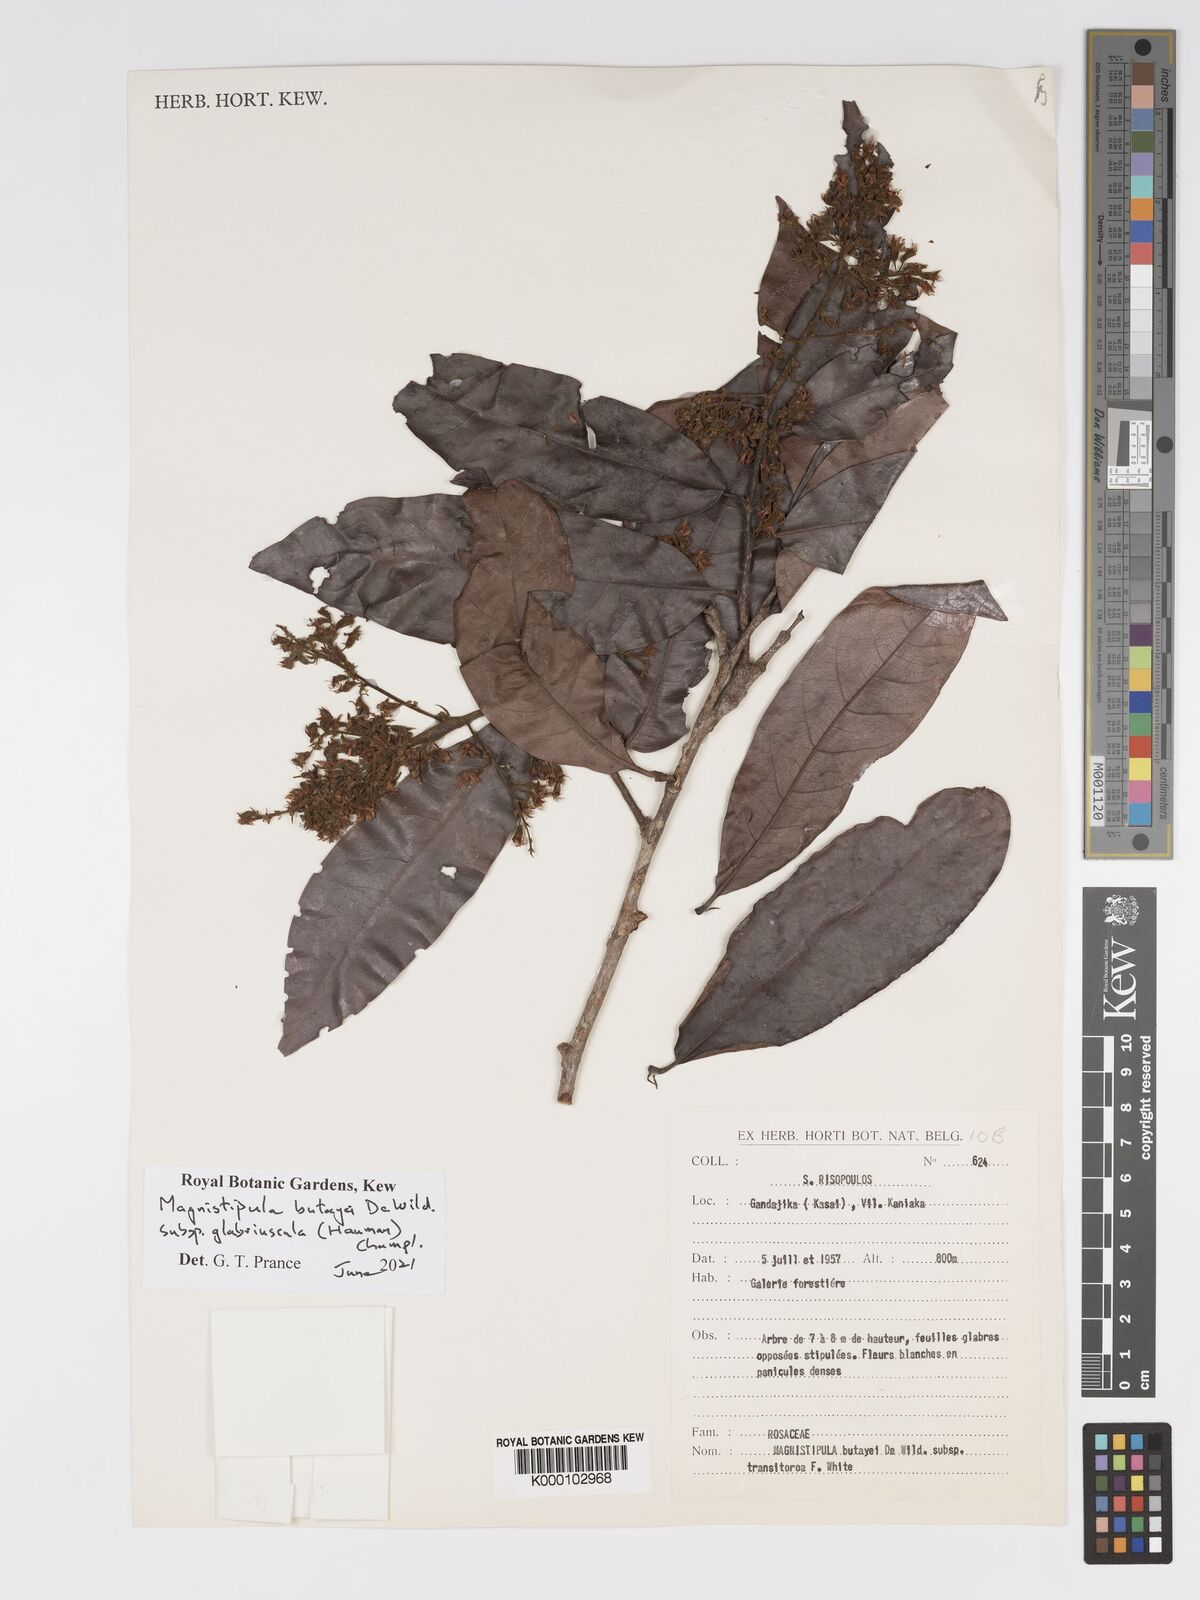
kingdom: Plantae
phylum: Tracheophyta
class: Magnoliopsida
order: Malpighiales
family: Chrysobalanaceae
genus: Magnistipula
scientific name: Magnistipula butayei
